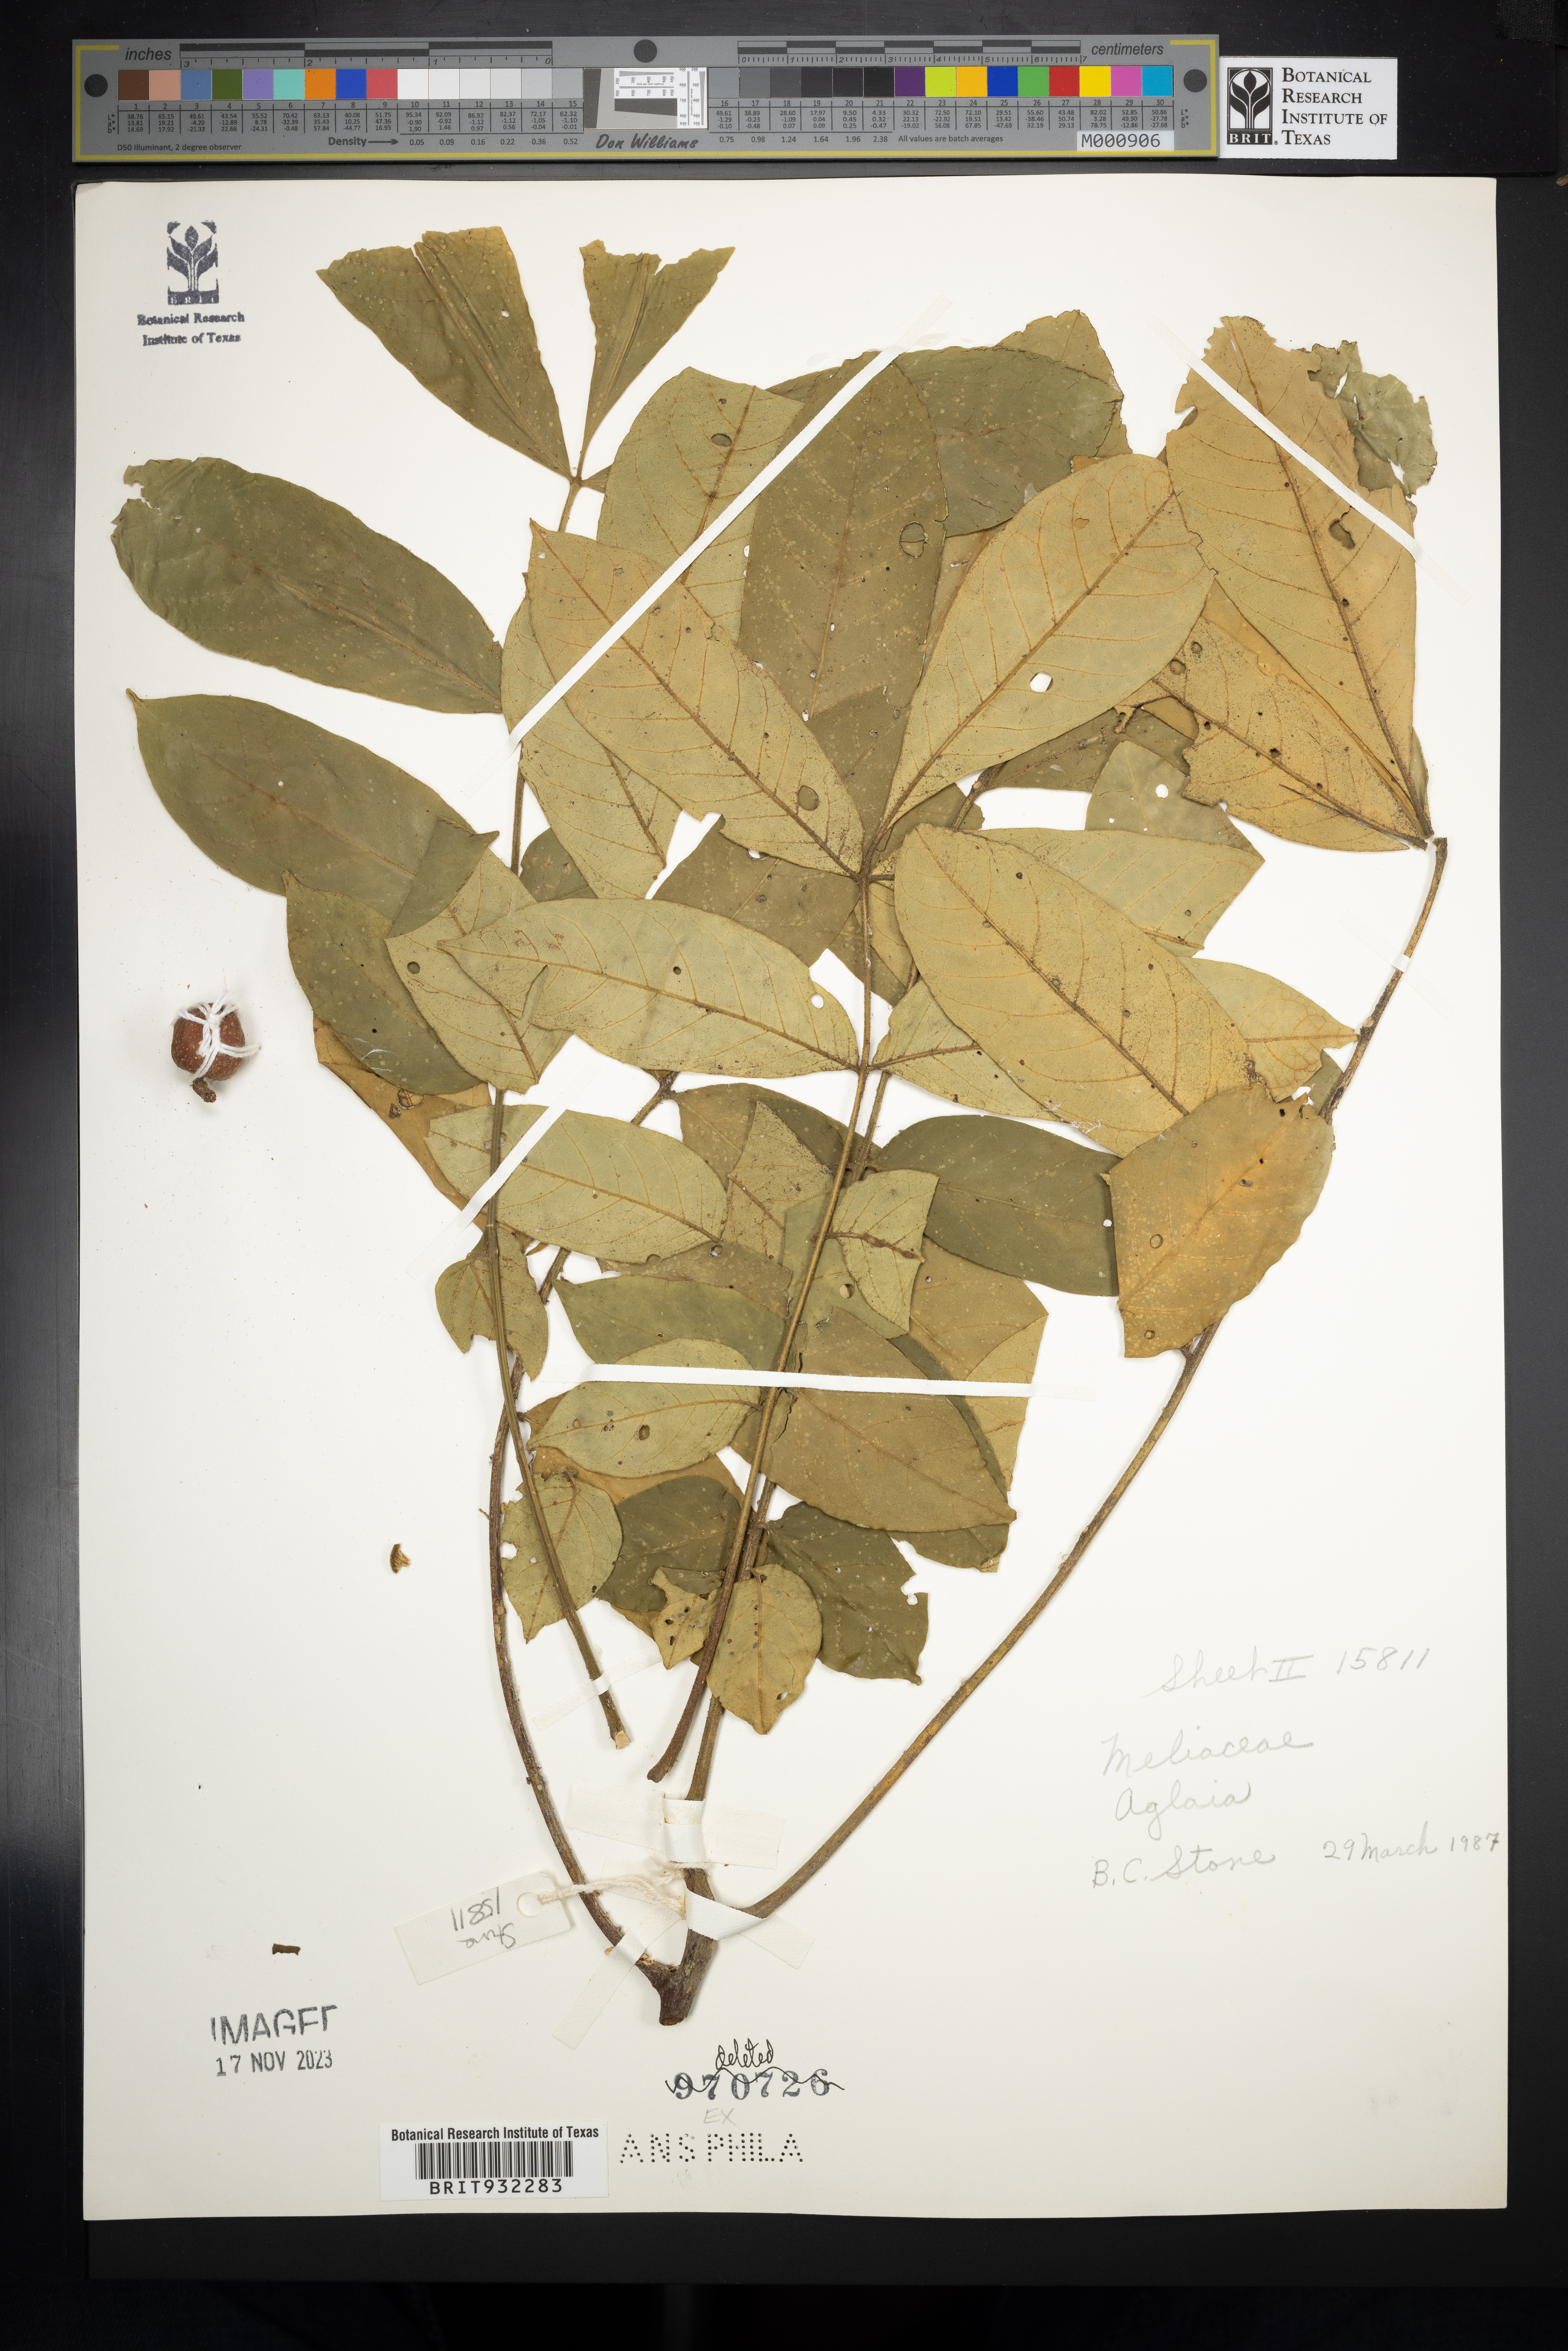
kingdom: Plantae
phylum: Tracheophyta
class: Magnoliopsida
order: Sapindales
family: Meliaceae
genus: Aglaia
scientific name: Aglaia
